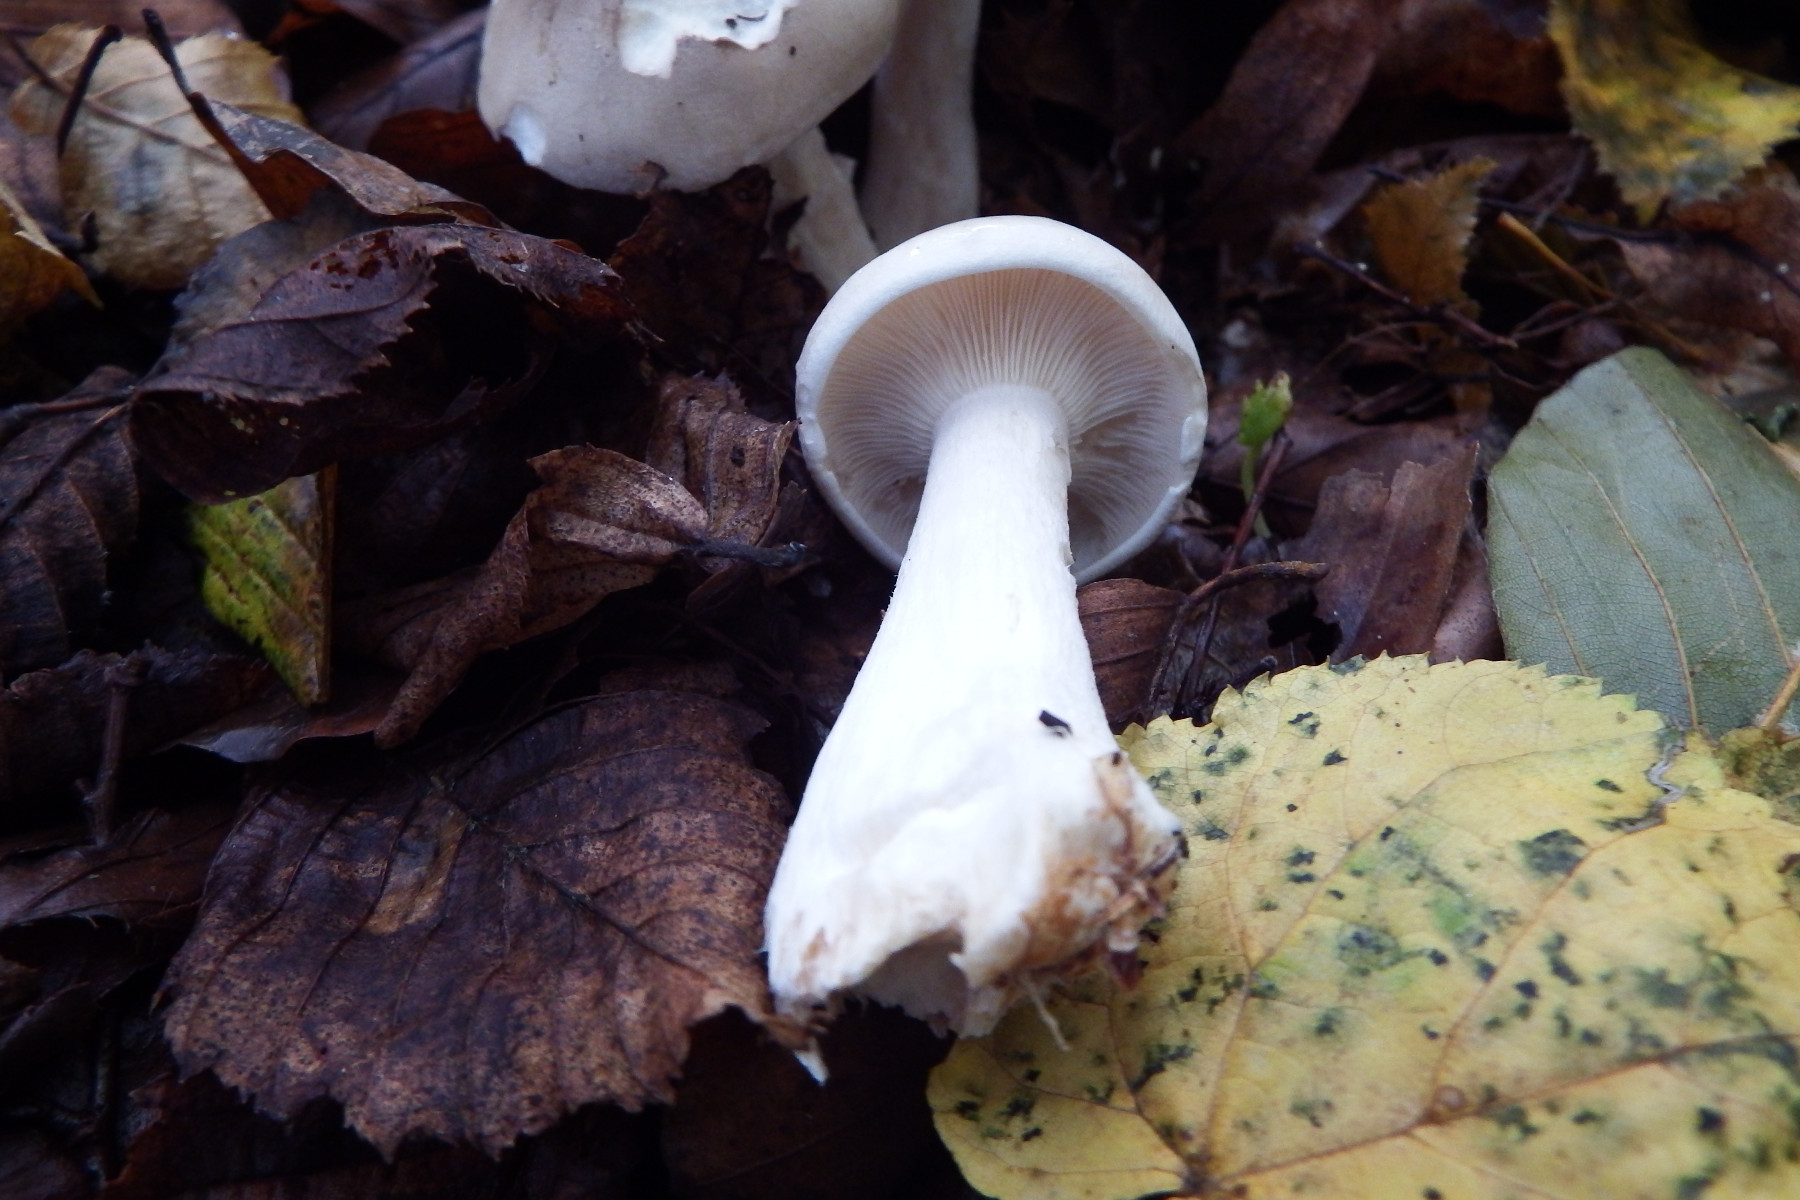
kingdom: Fungi
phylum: Basidiomycota
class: Agaricomycetes
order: Agaricales
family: Tricholomataceae
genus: Clitocybe
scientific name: Clitocybe nebularis
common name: tåge-tragthat
